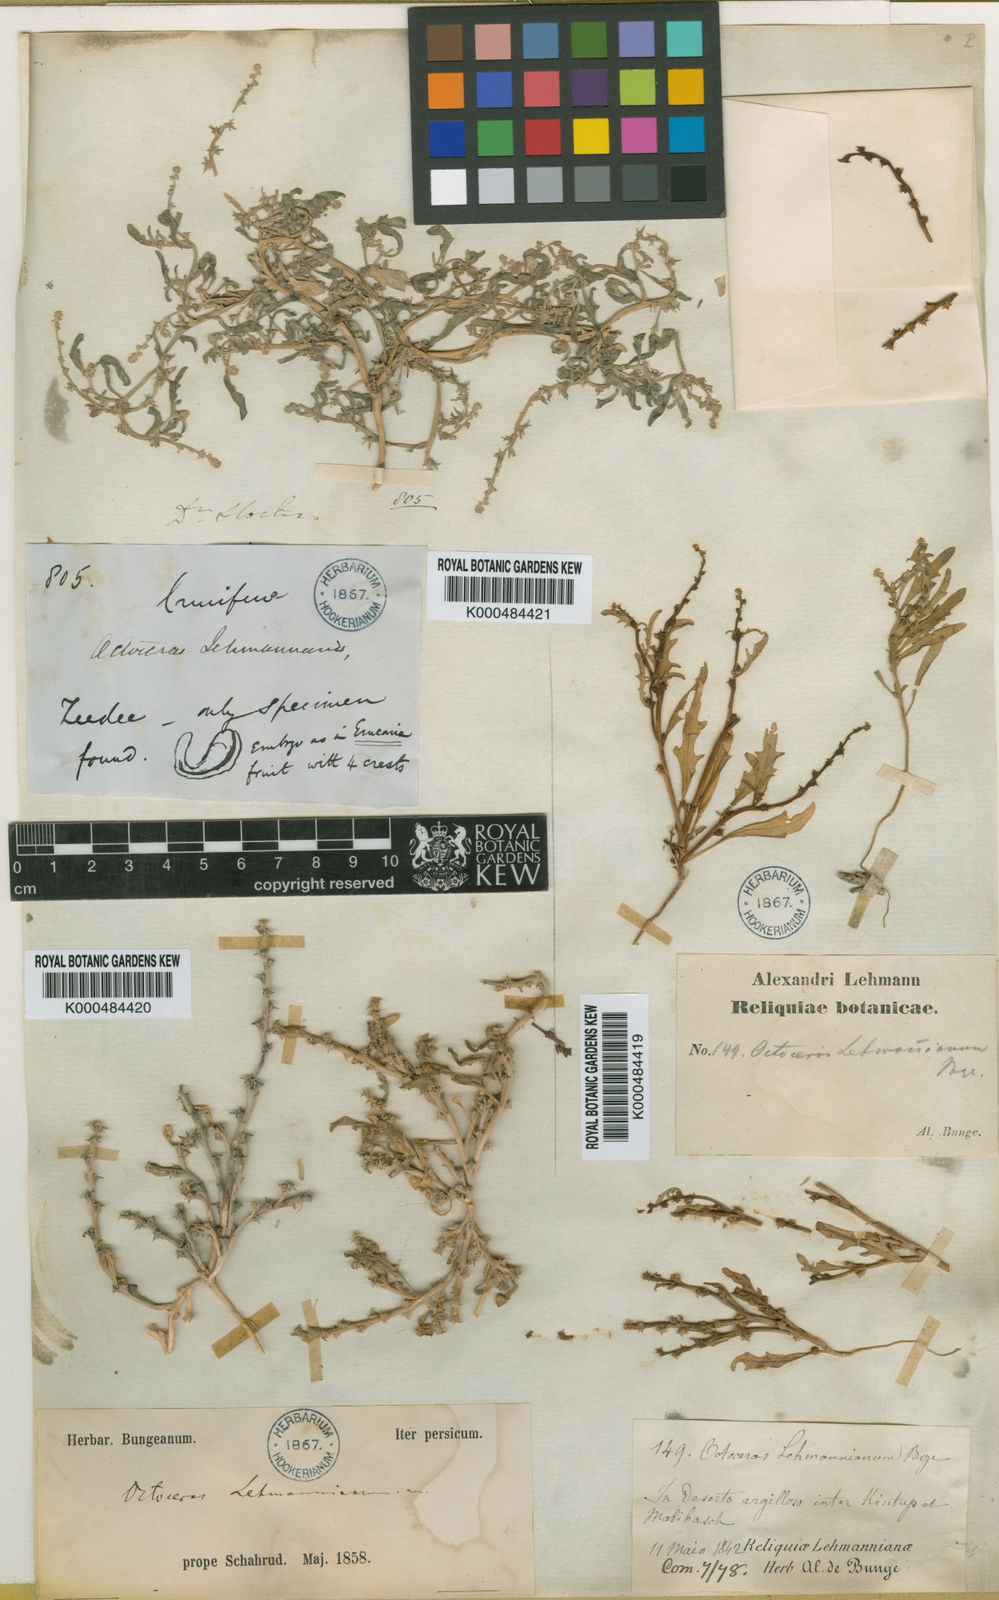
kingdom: Plantae
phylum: Tracheophyta
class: Magnoliopsida
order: Brassicales
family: Brassicaceae
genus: Octoceras
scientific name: Octoceras lehmannianum
